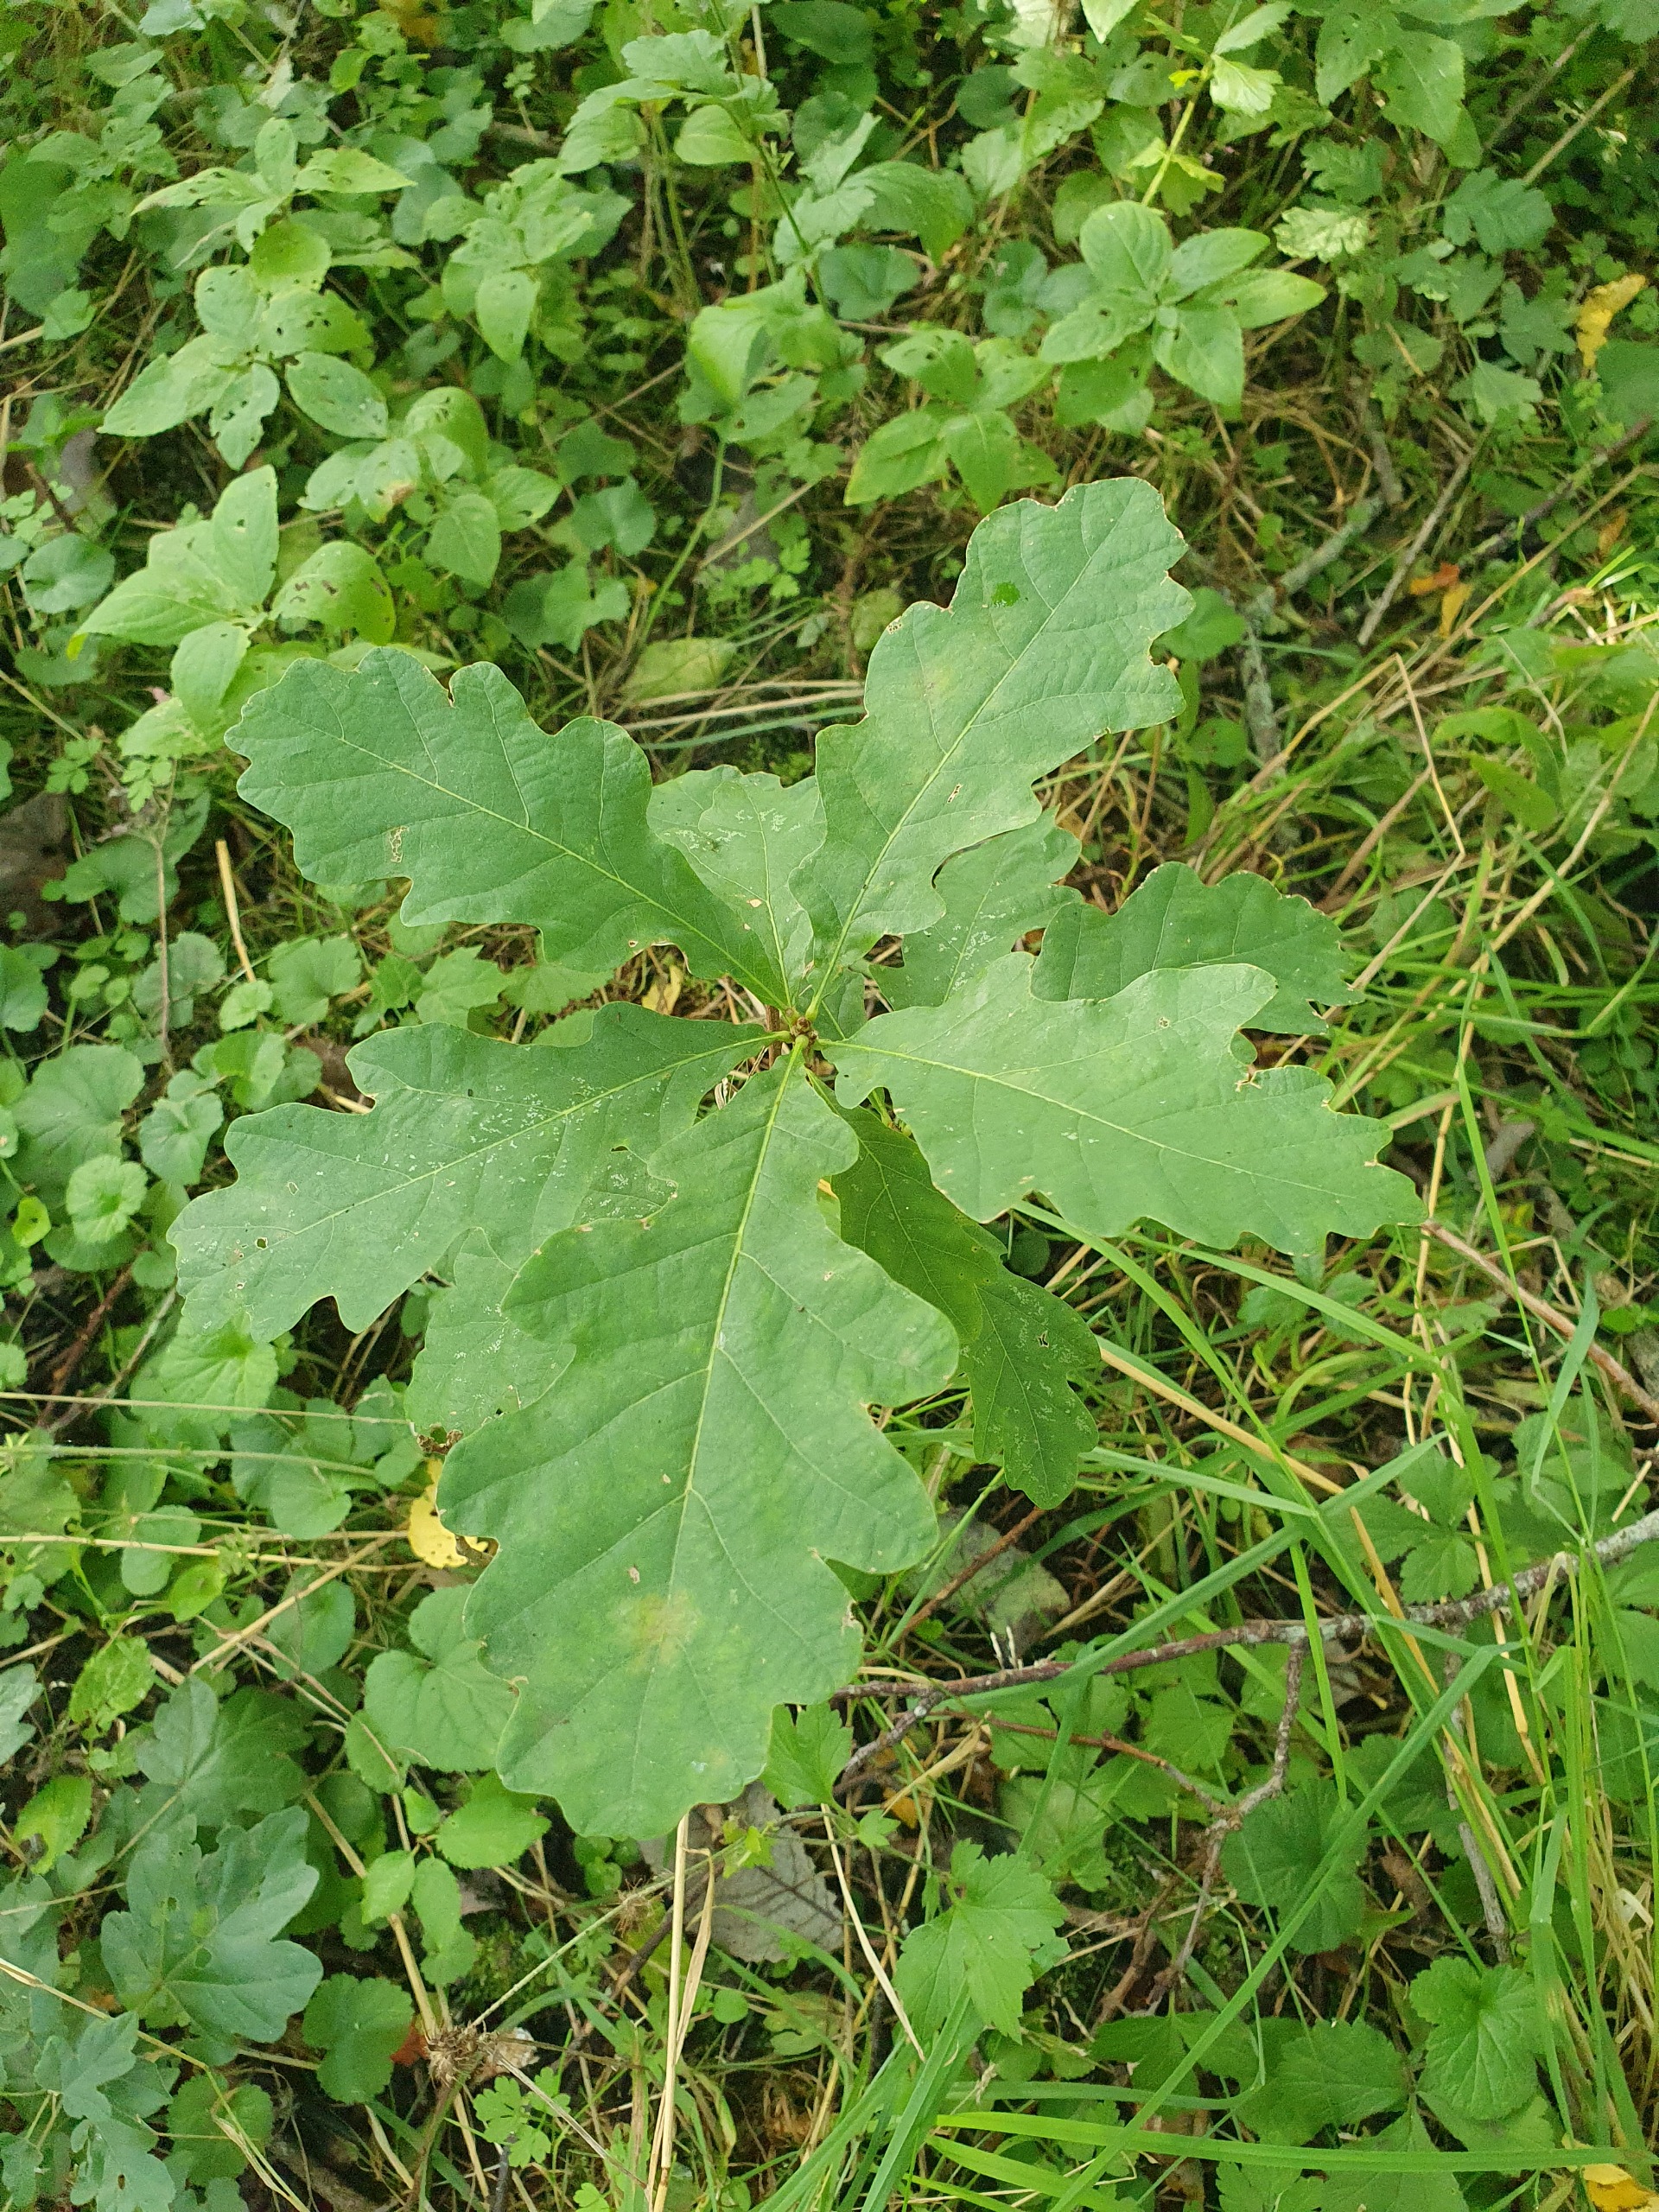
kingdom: Plantae
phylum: Tracheophyta
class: Magnoliopsida
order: Fagales
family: Fagaceae
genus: Quercus
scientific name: Quercus robur
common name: Stilk-eg/almindelig eg
